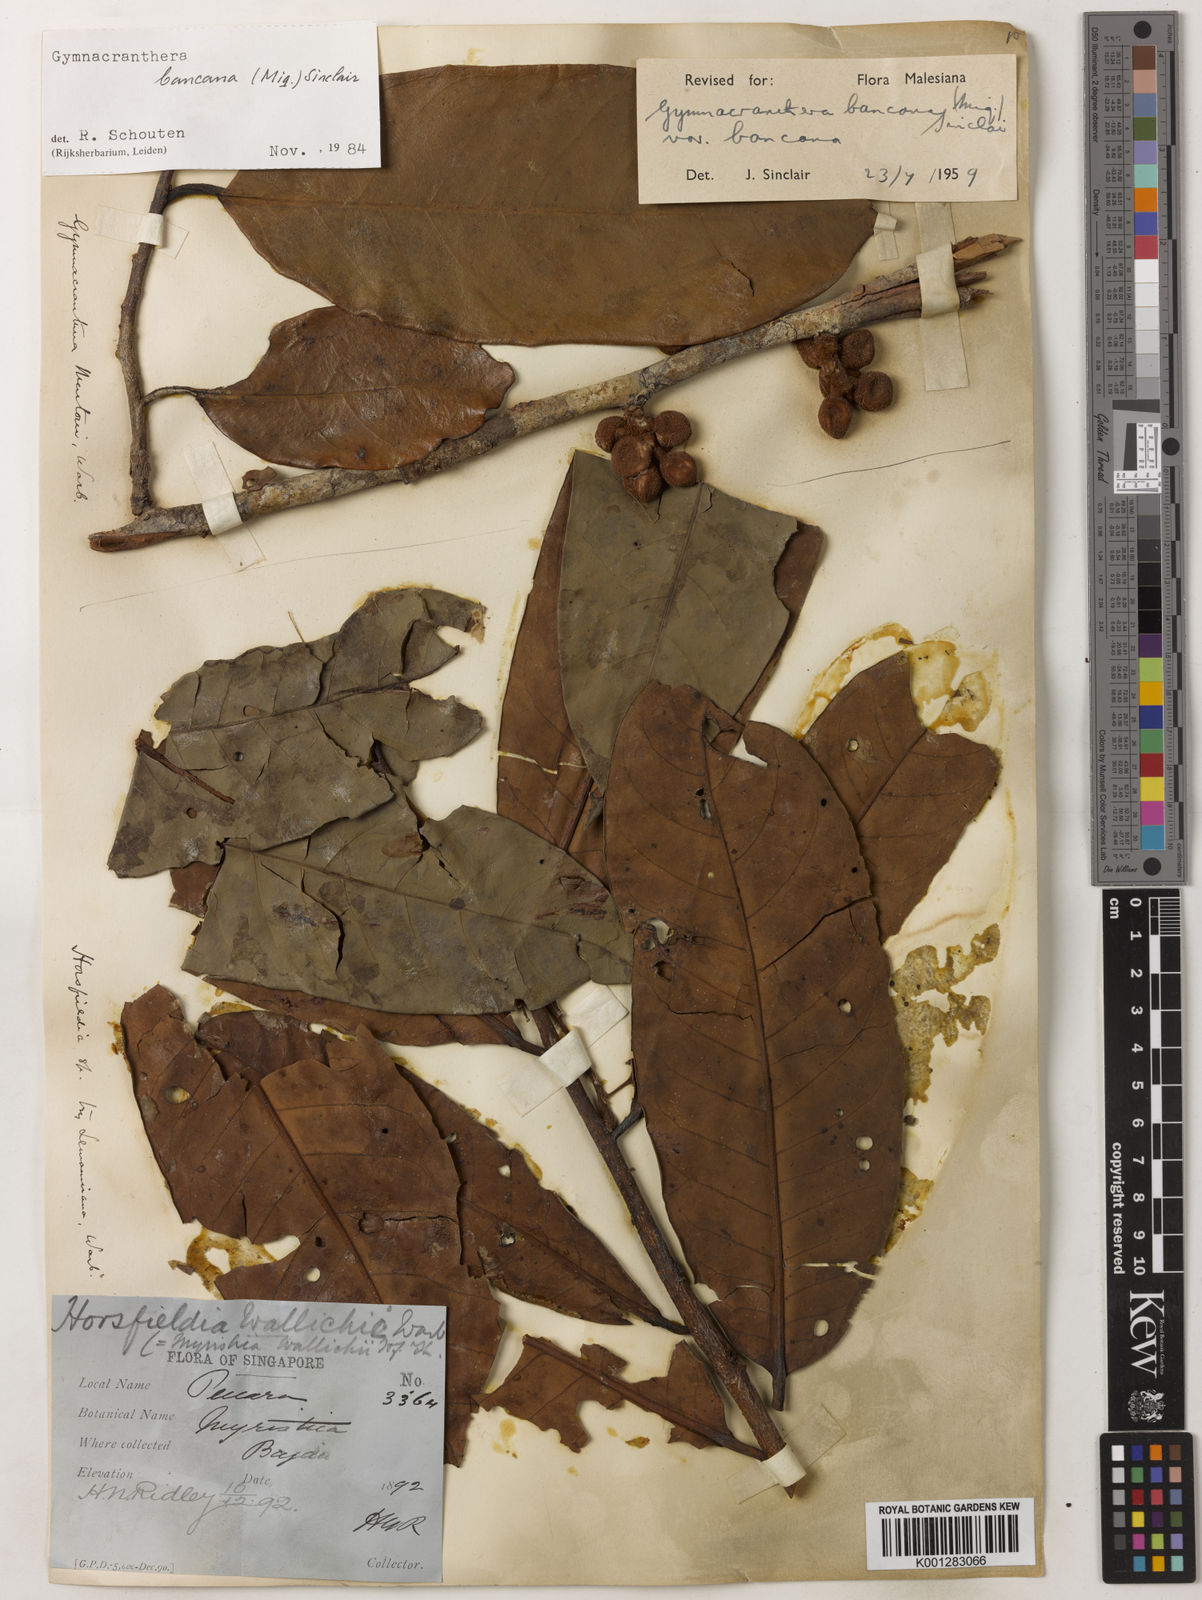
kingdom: Plantae
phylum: Tracheophyta
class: Magnoliopsida
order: Magnoliales
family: Myristicaceae
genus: Gymnacranthera
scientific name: Gymnacranthera bancana
